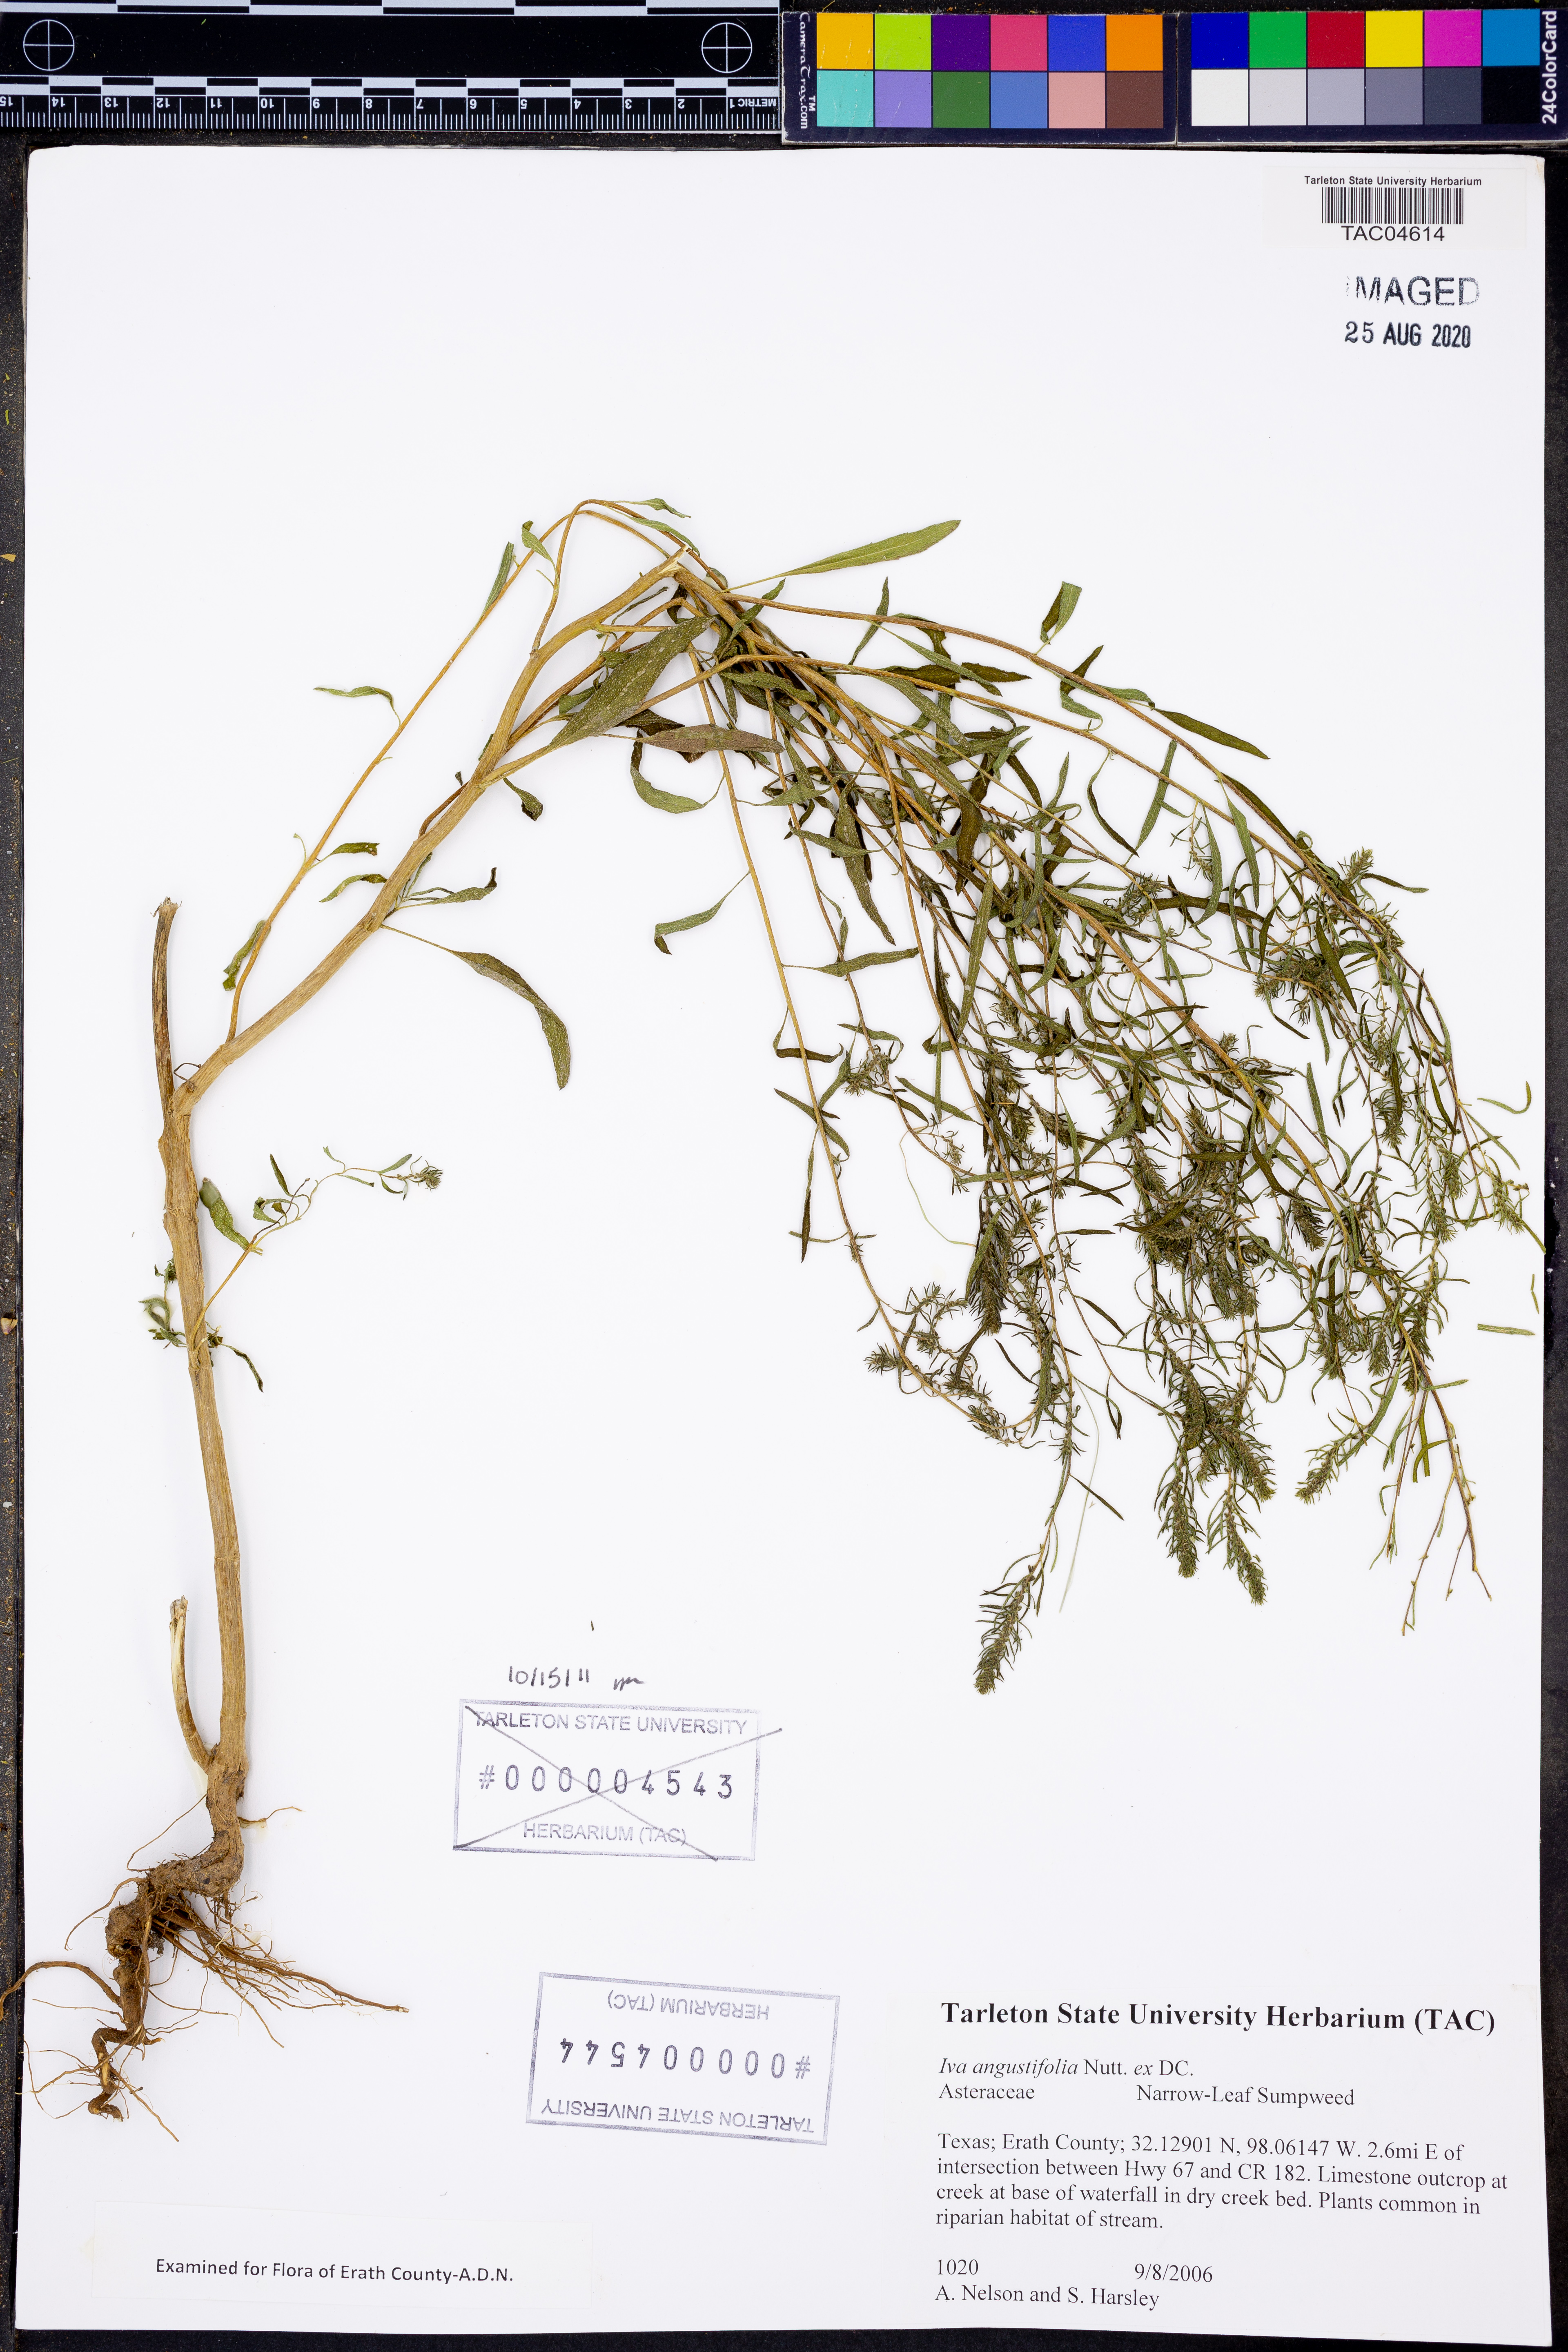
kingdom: Plantae
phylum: Tracheophyta
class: Magnoliopsida
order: Asterales
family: Asteraceae
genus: Iva
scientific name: Iva asperifolia
